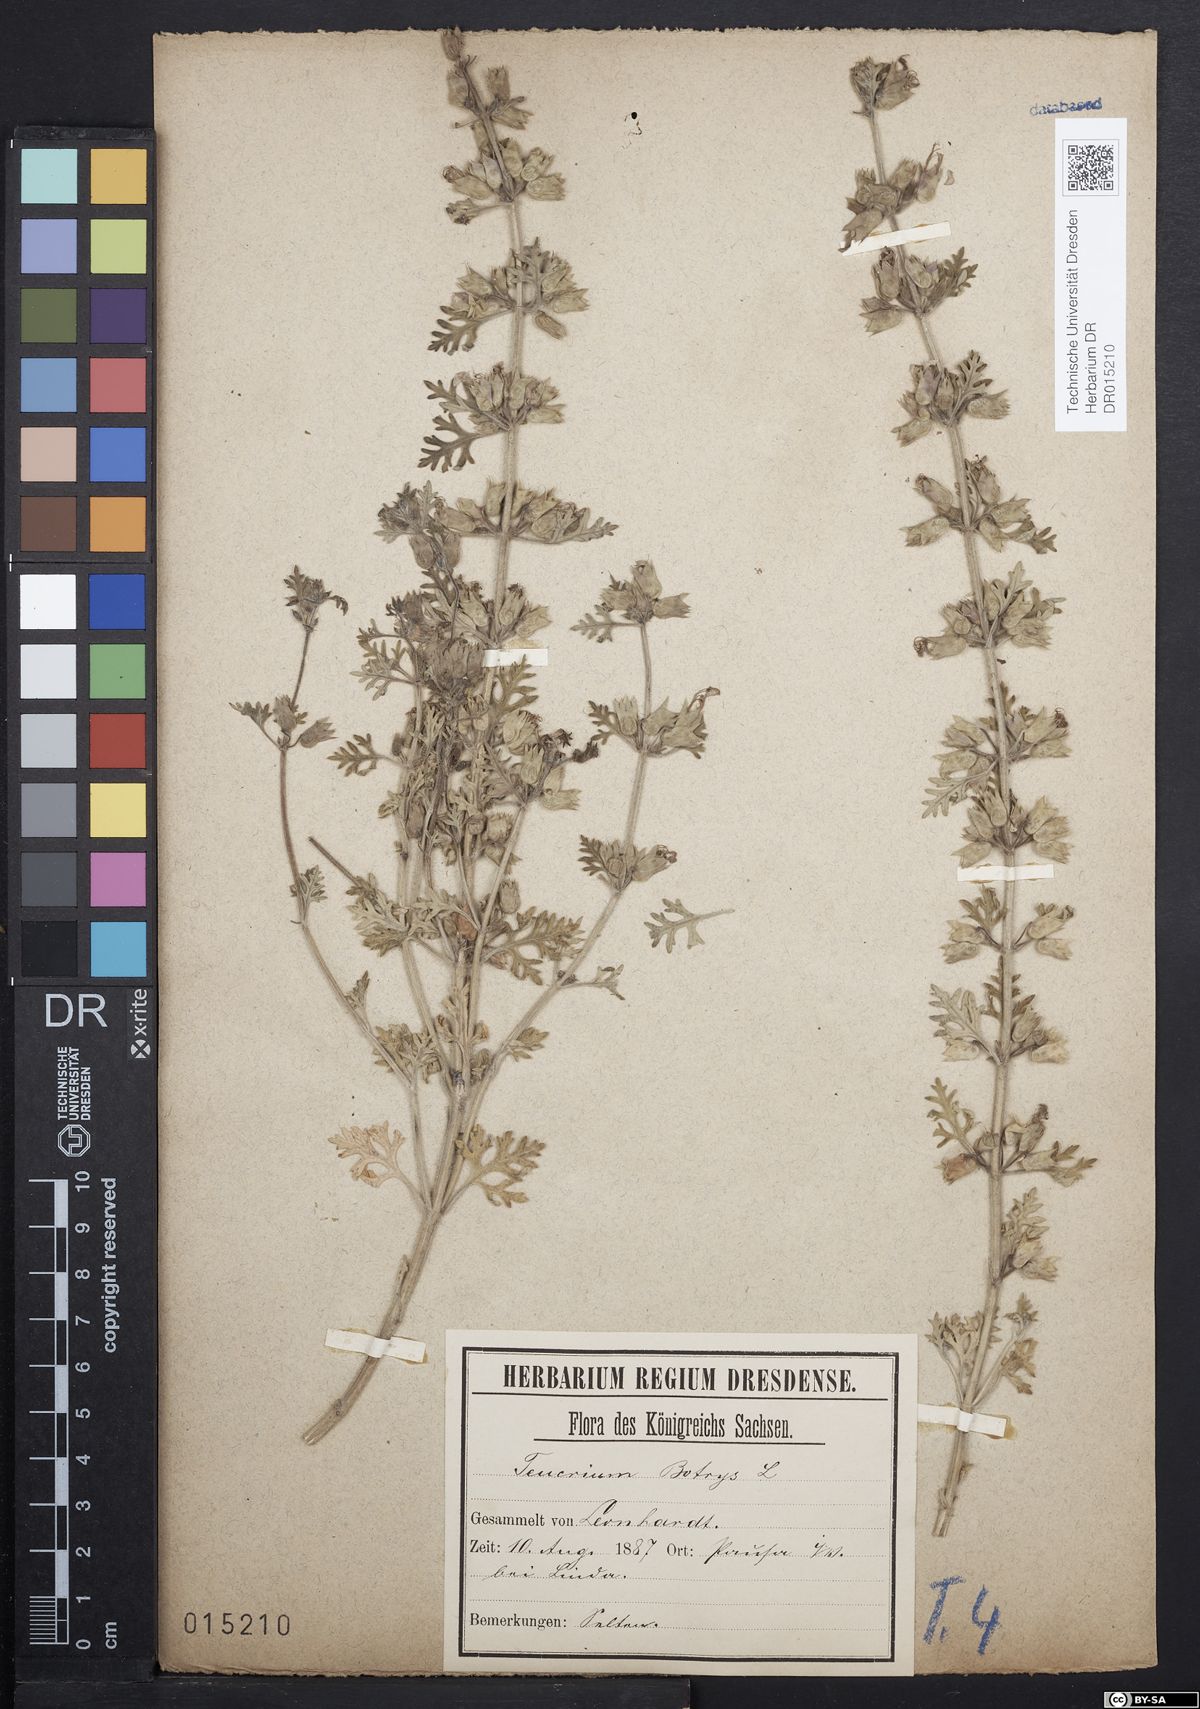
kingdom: Plantae
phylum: Tracheophyta
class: Magnoliopsida
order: Lamiales
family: Lamiaceae
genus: Teucrium
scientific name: Teucrium botrys
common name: Cut-leaved germander
